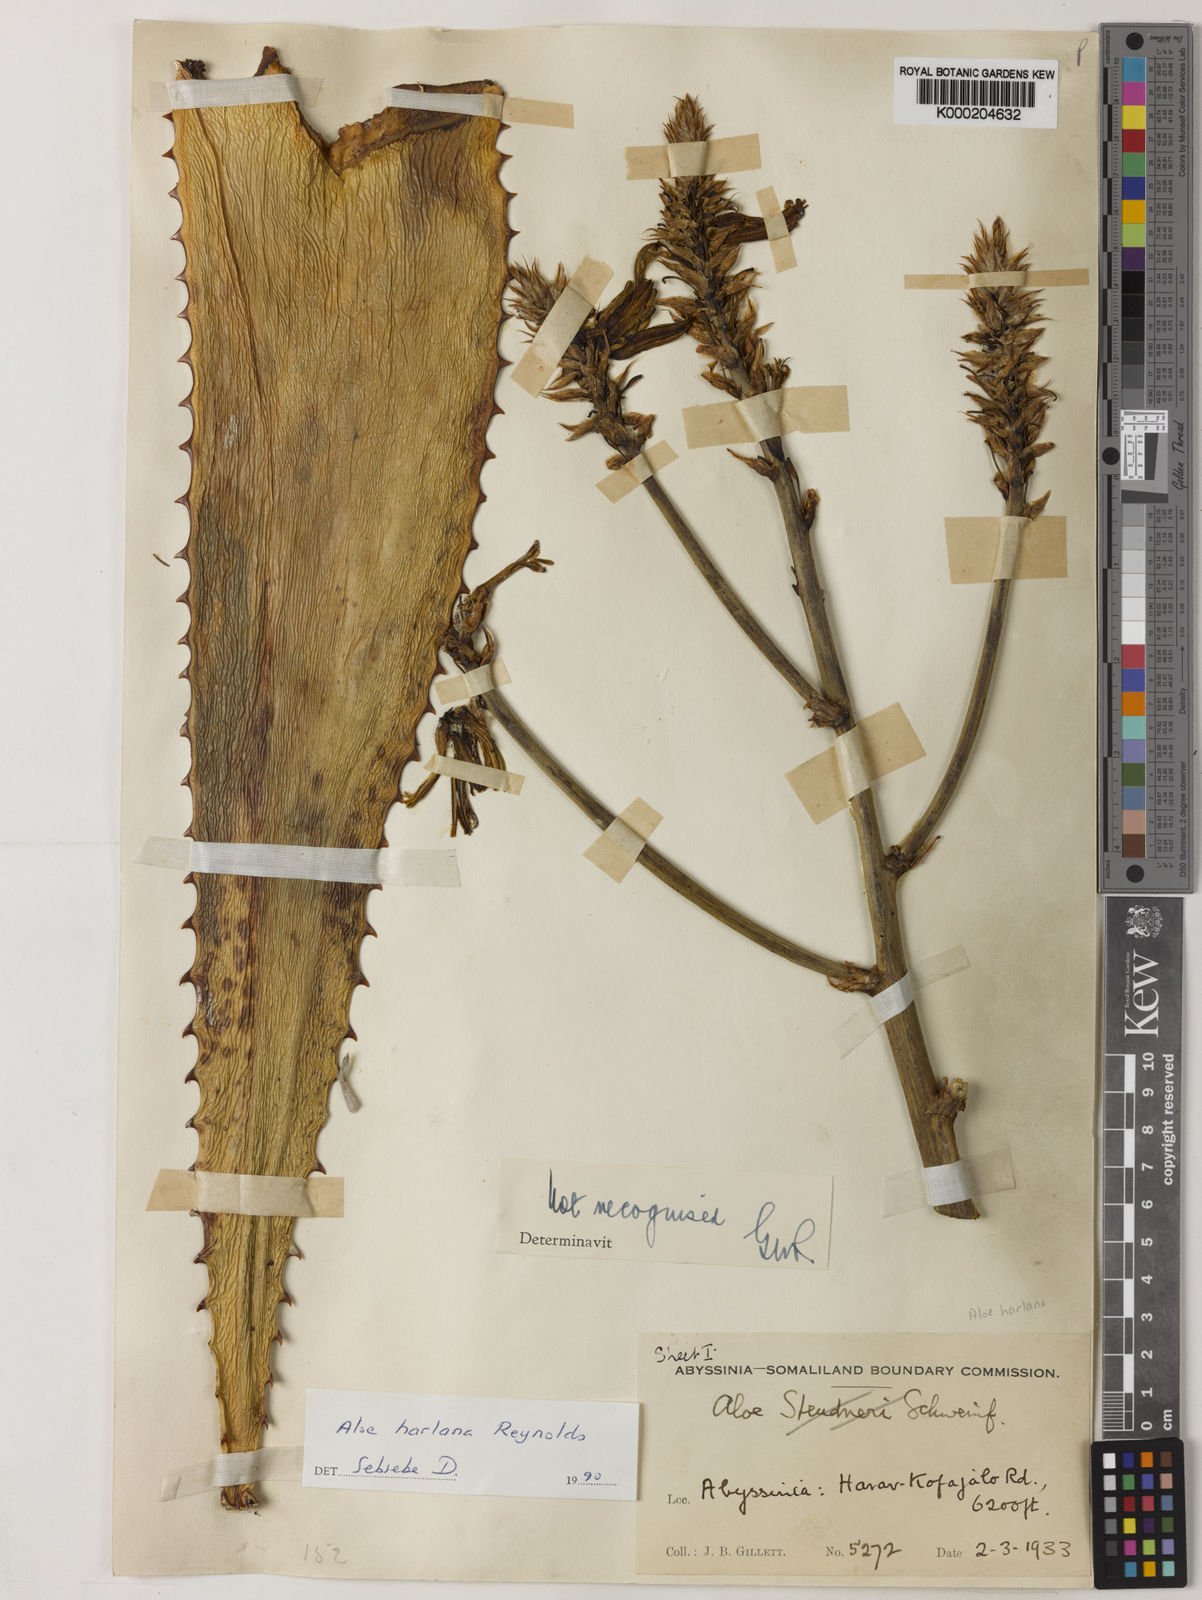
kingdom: Plantae
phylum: Tracheophyta
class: Liliopsida
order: Asparagales
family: Asphodelaceae
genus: Aloe
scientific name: Aloe harlana
